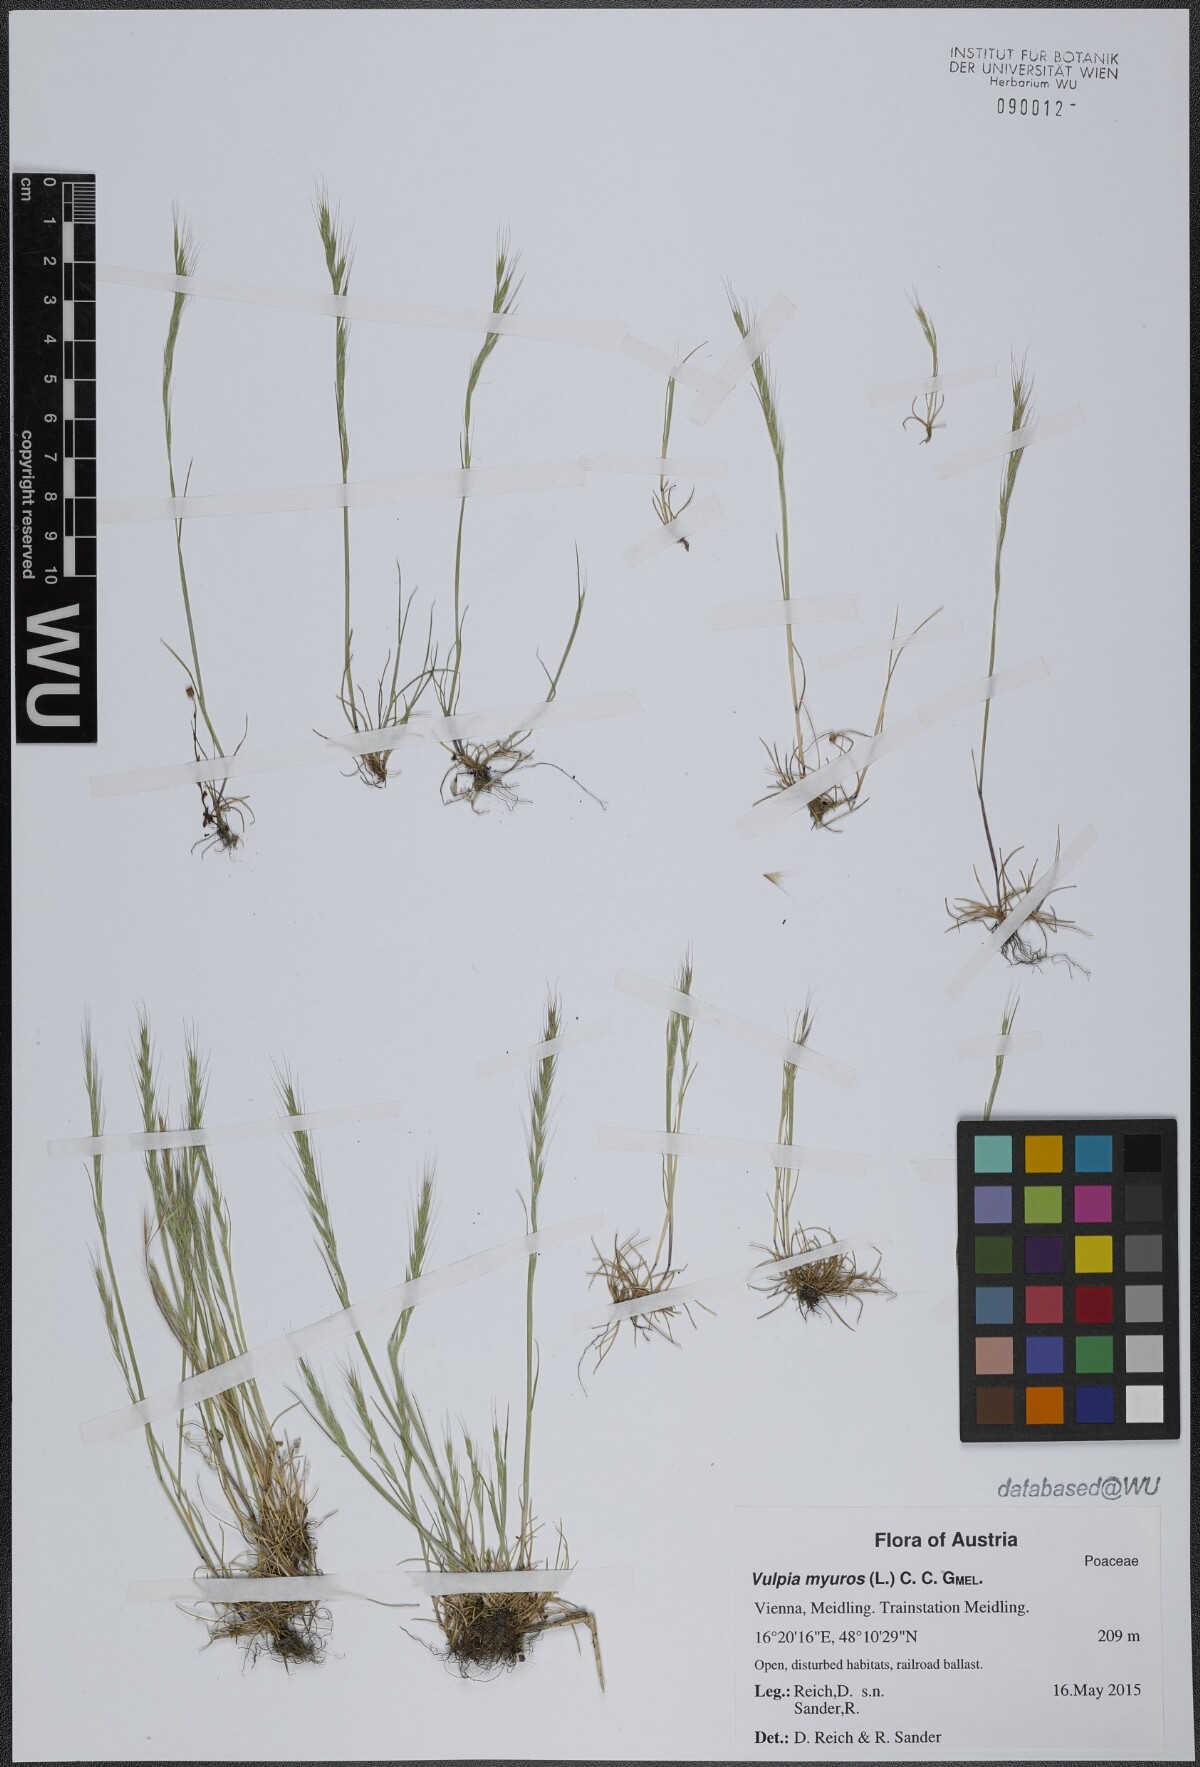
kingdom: Plantae
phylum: Tracheophyta
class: Liliopsida
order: Poales
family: Poaceae
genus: Festuca
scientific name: Festuca myuros
